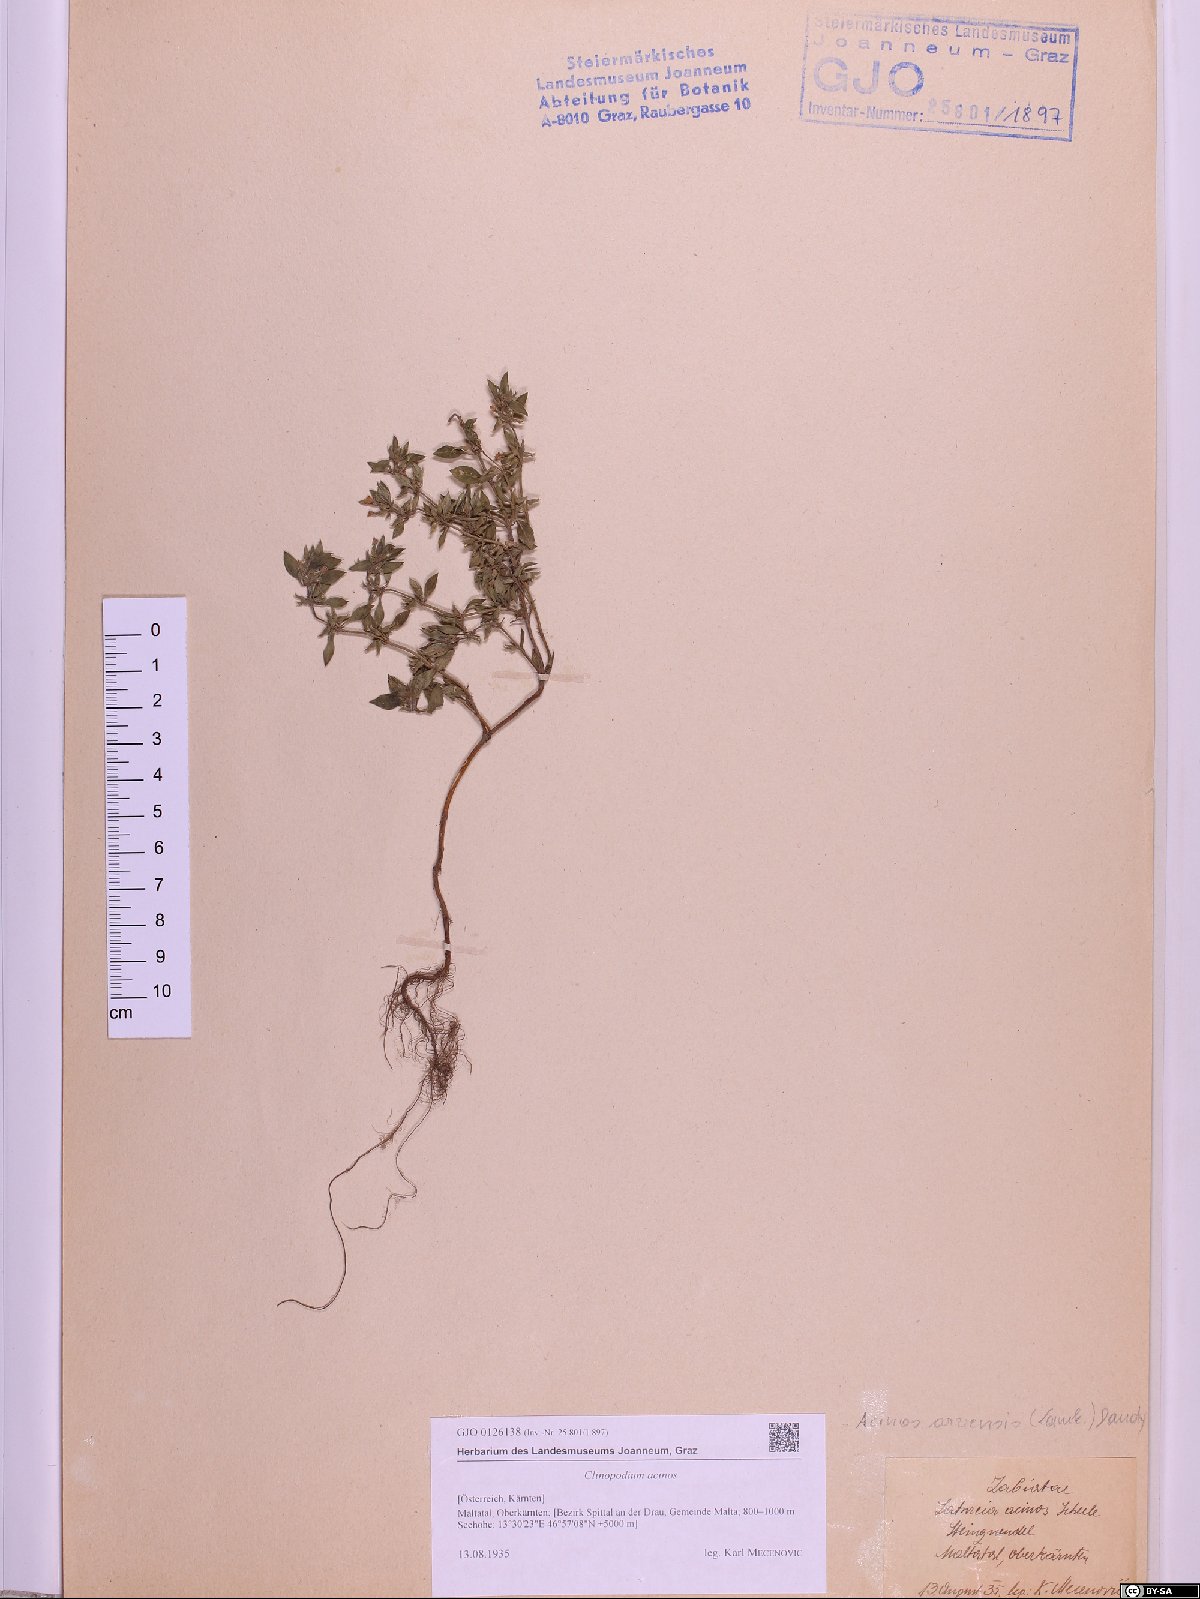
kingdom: Plantae
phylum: Tracheophyta
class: Magnoliopsida
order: Lamiales
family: Lamiaceae
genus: Clinopodium
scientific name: Clinopodium acinos
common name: Basil thyme
